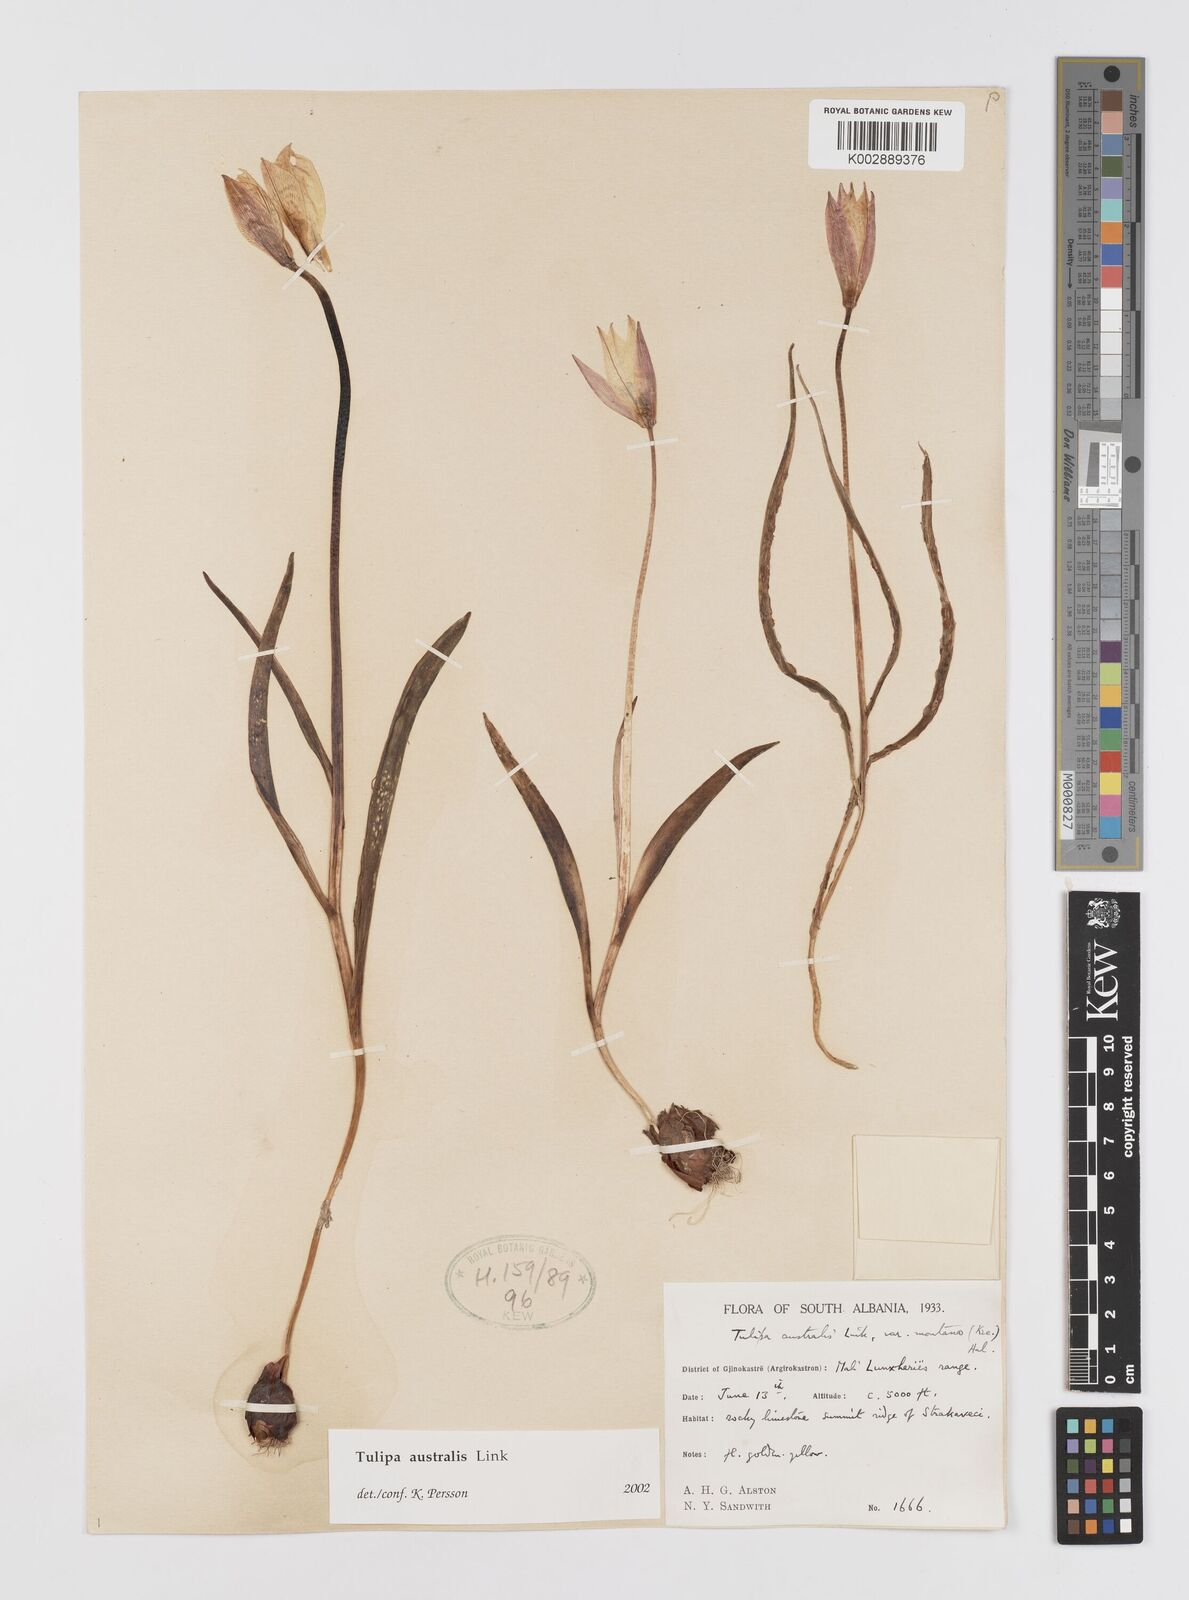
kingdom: Plantae
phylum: Tracheophyta
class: Liliopsida
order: Liliales
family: Liliaceae
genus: Tulipa
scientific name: Tulipa sylvestris
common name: Wild tulip
